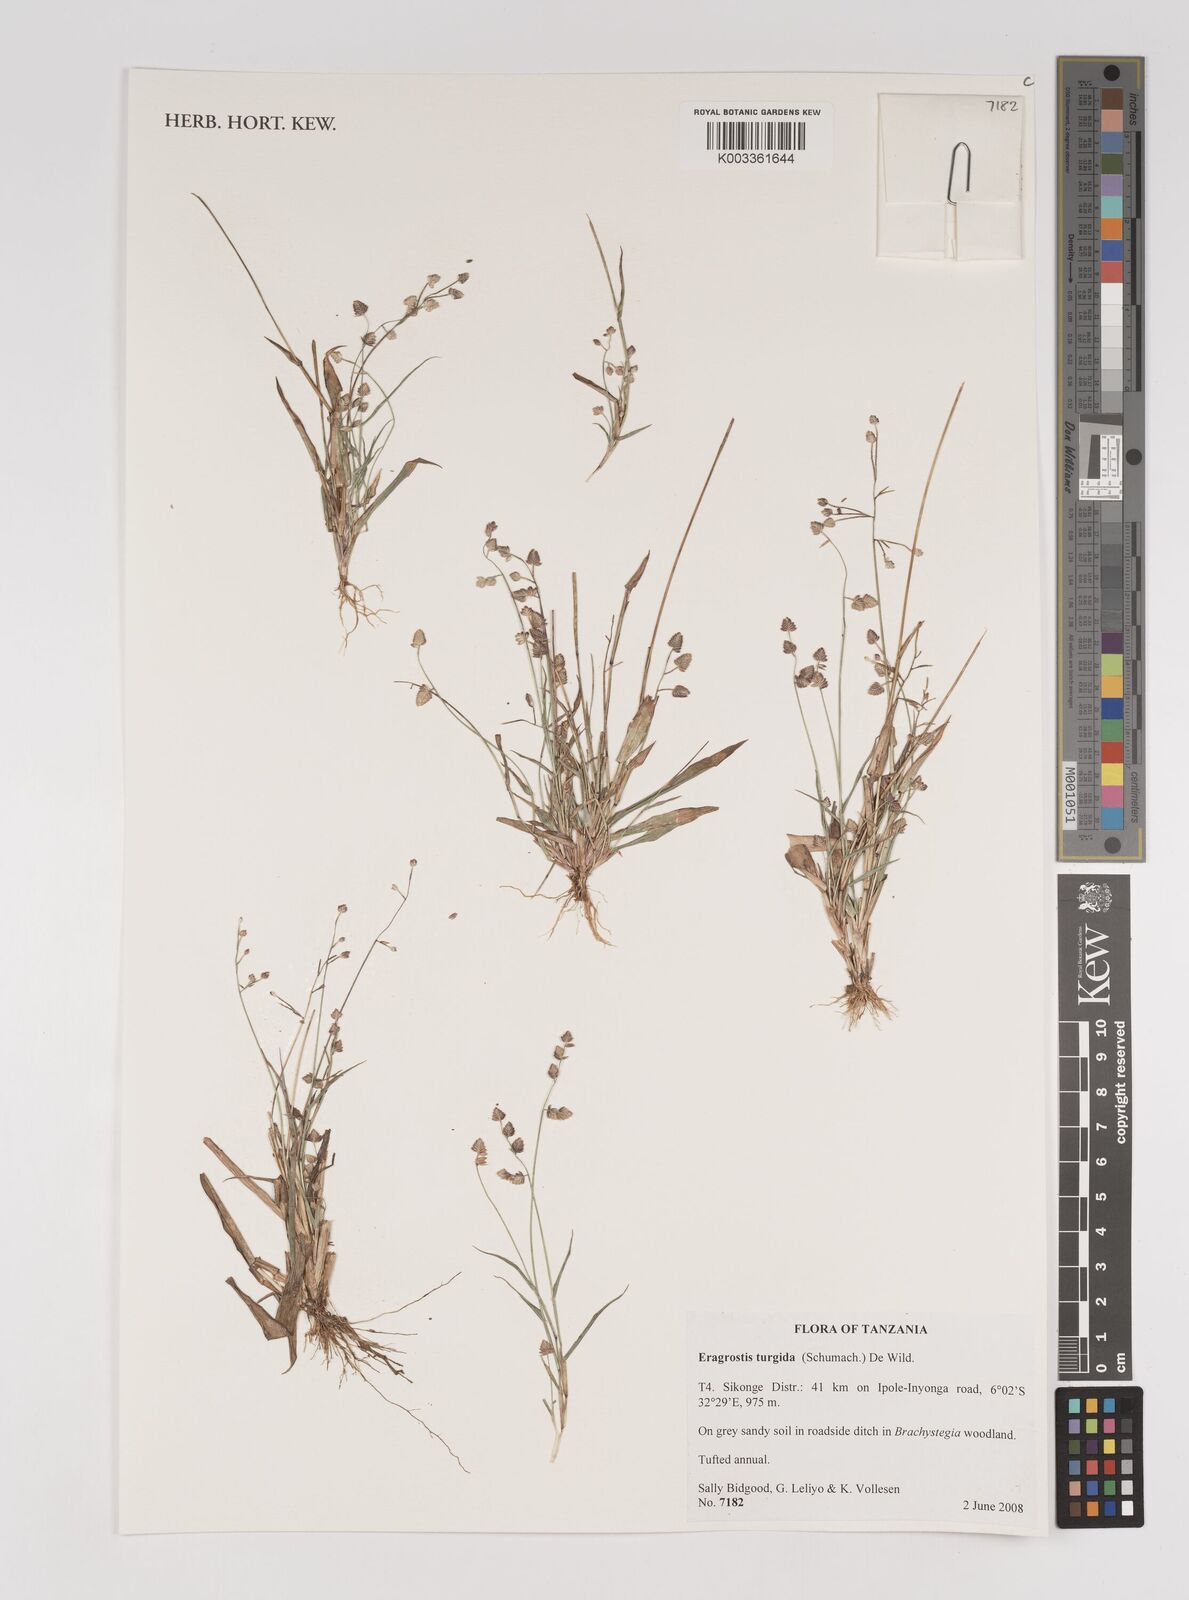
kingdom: Plantae
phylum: Tracheophyta
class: Liliopsida
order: Poales
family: Poaceae
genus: Eragrostis
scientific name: Eragrostis turgida
